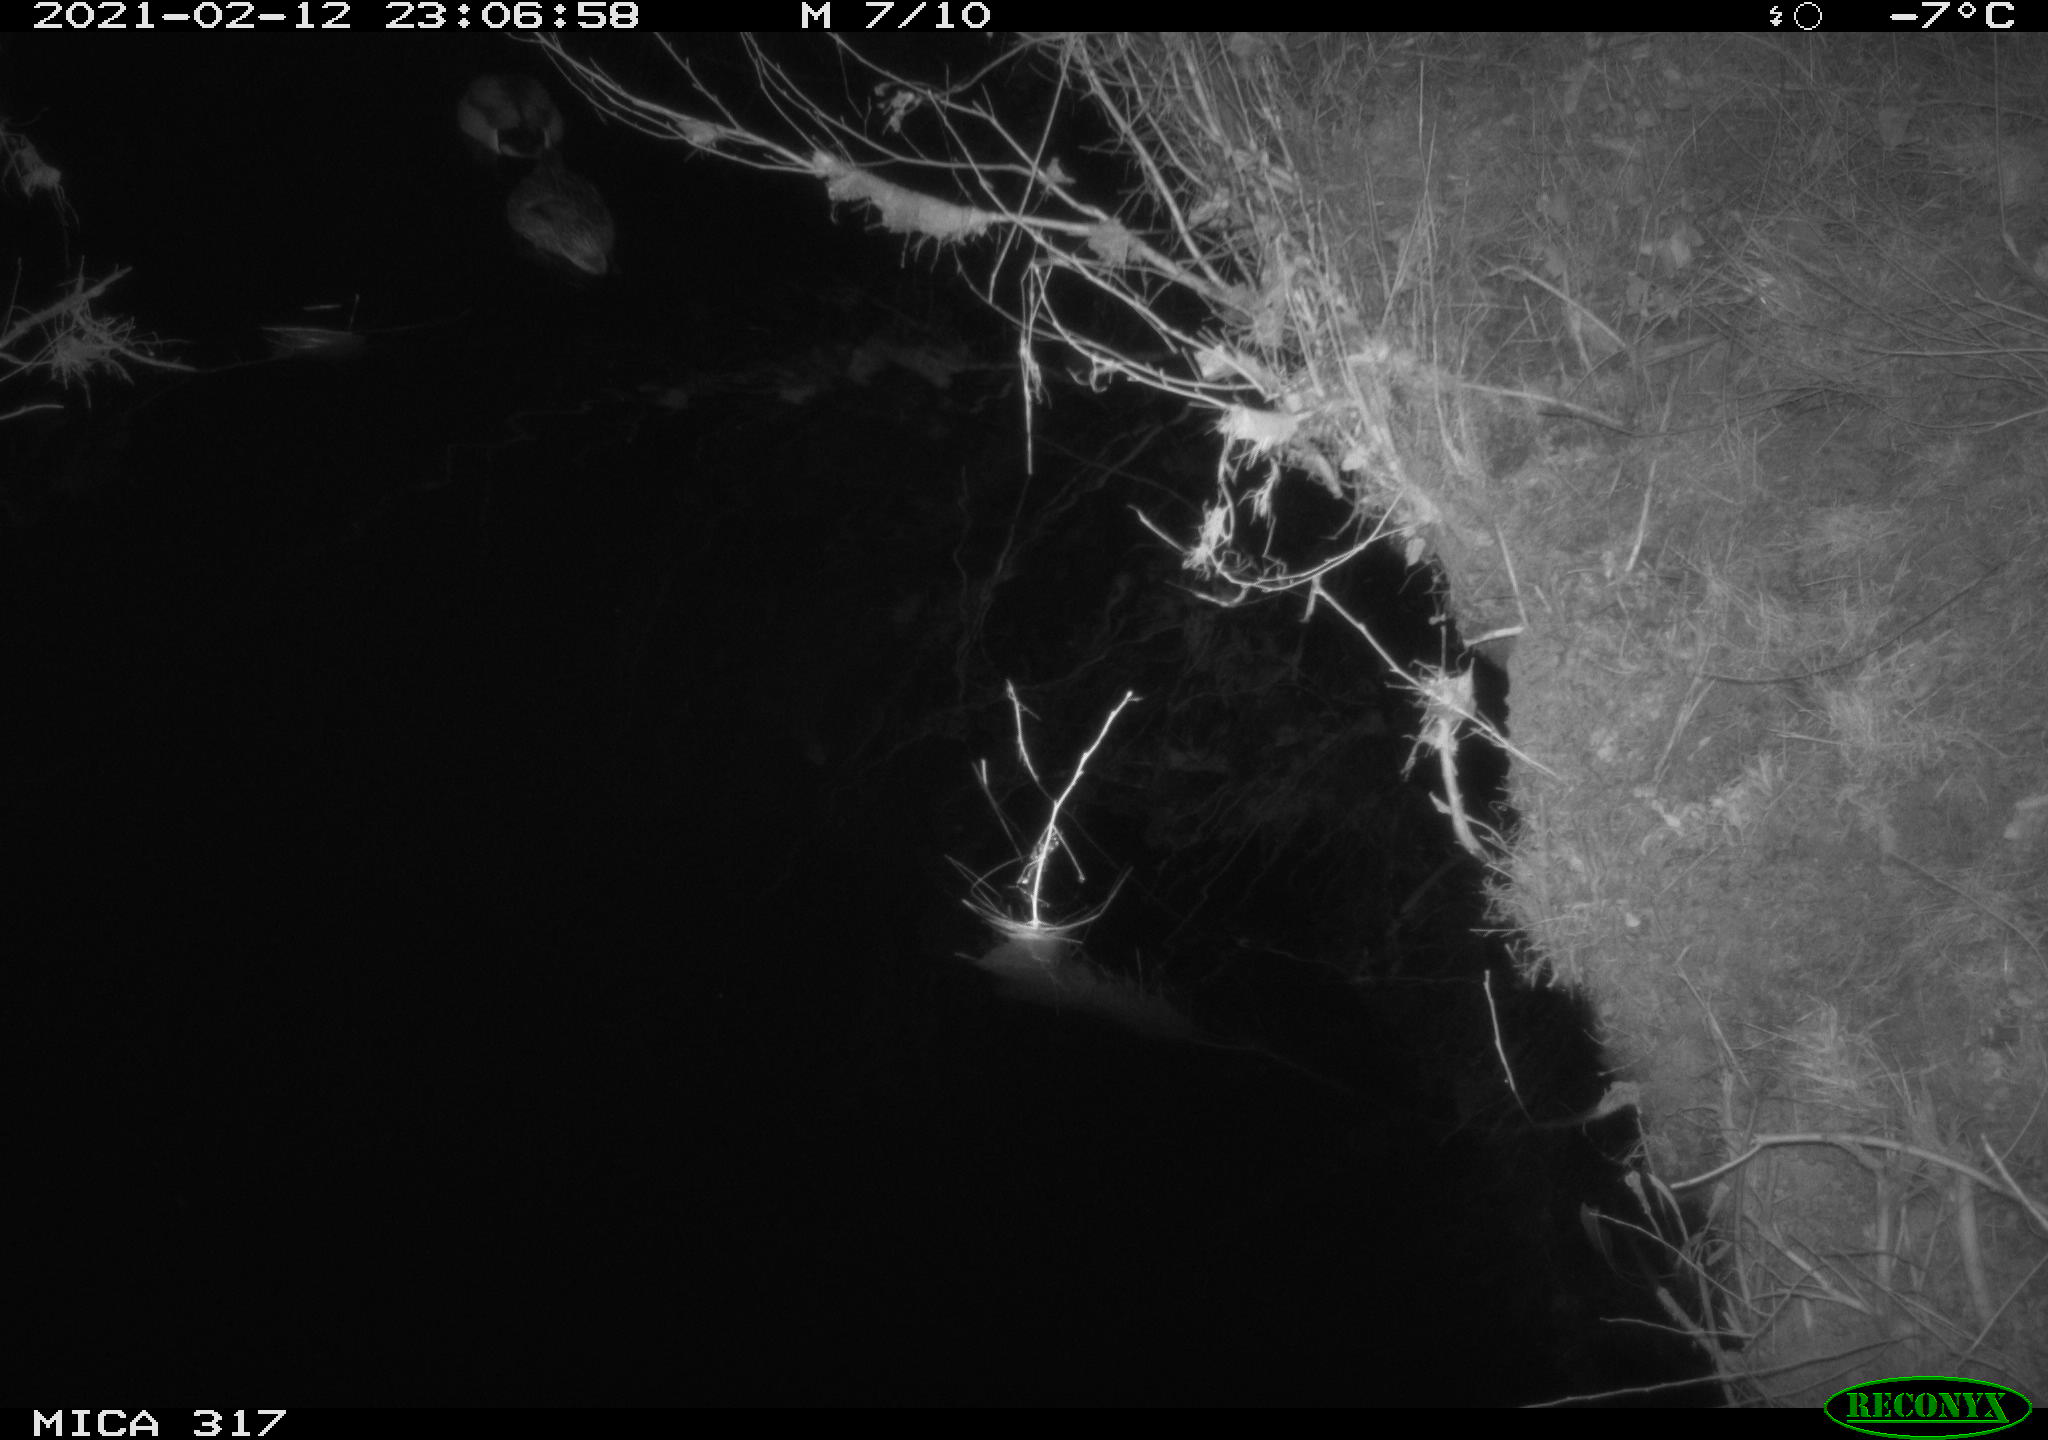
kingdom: Animalia
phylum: Chordata
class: Aves
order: Anseriformes
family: Anatidae
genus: Anas
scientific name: Anas platyrhynchos
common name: Mallard
